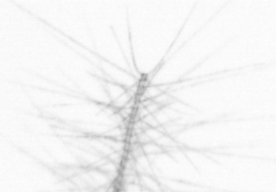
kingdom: Chromista
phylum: Ochrophyta
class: Bacillariophyceae
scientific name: Bacillariophyceae
